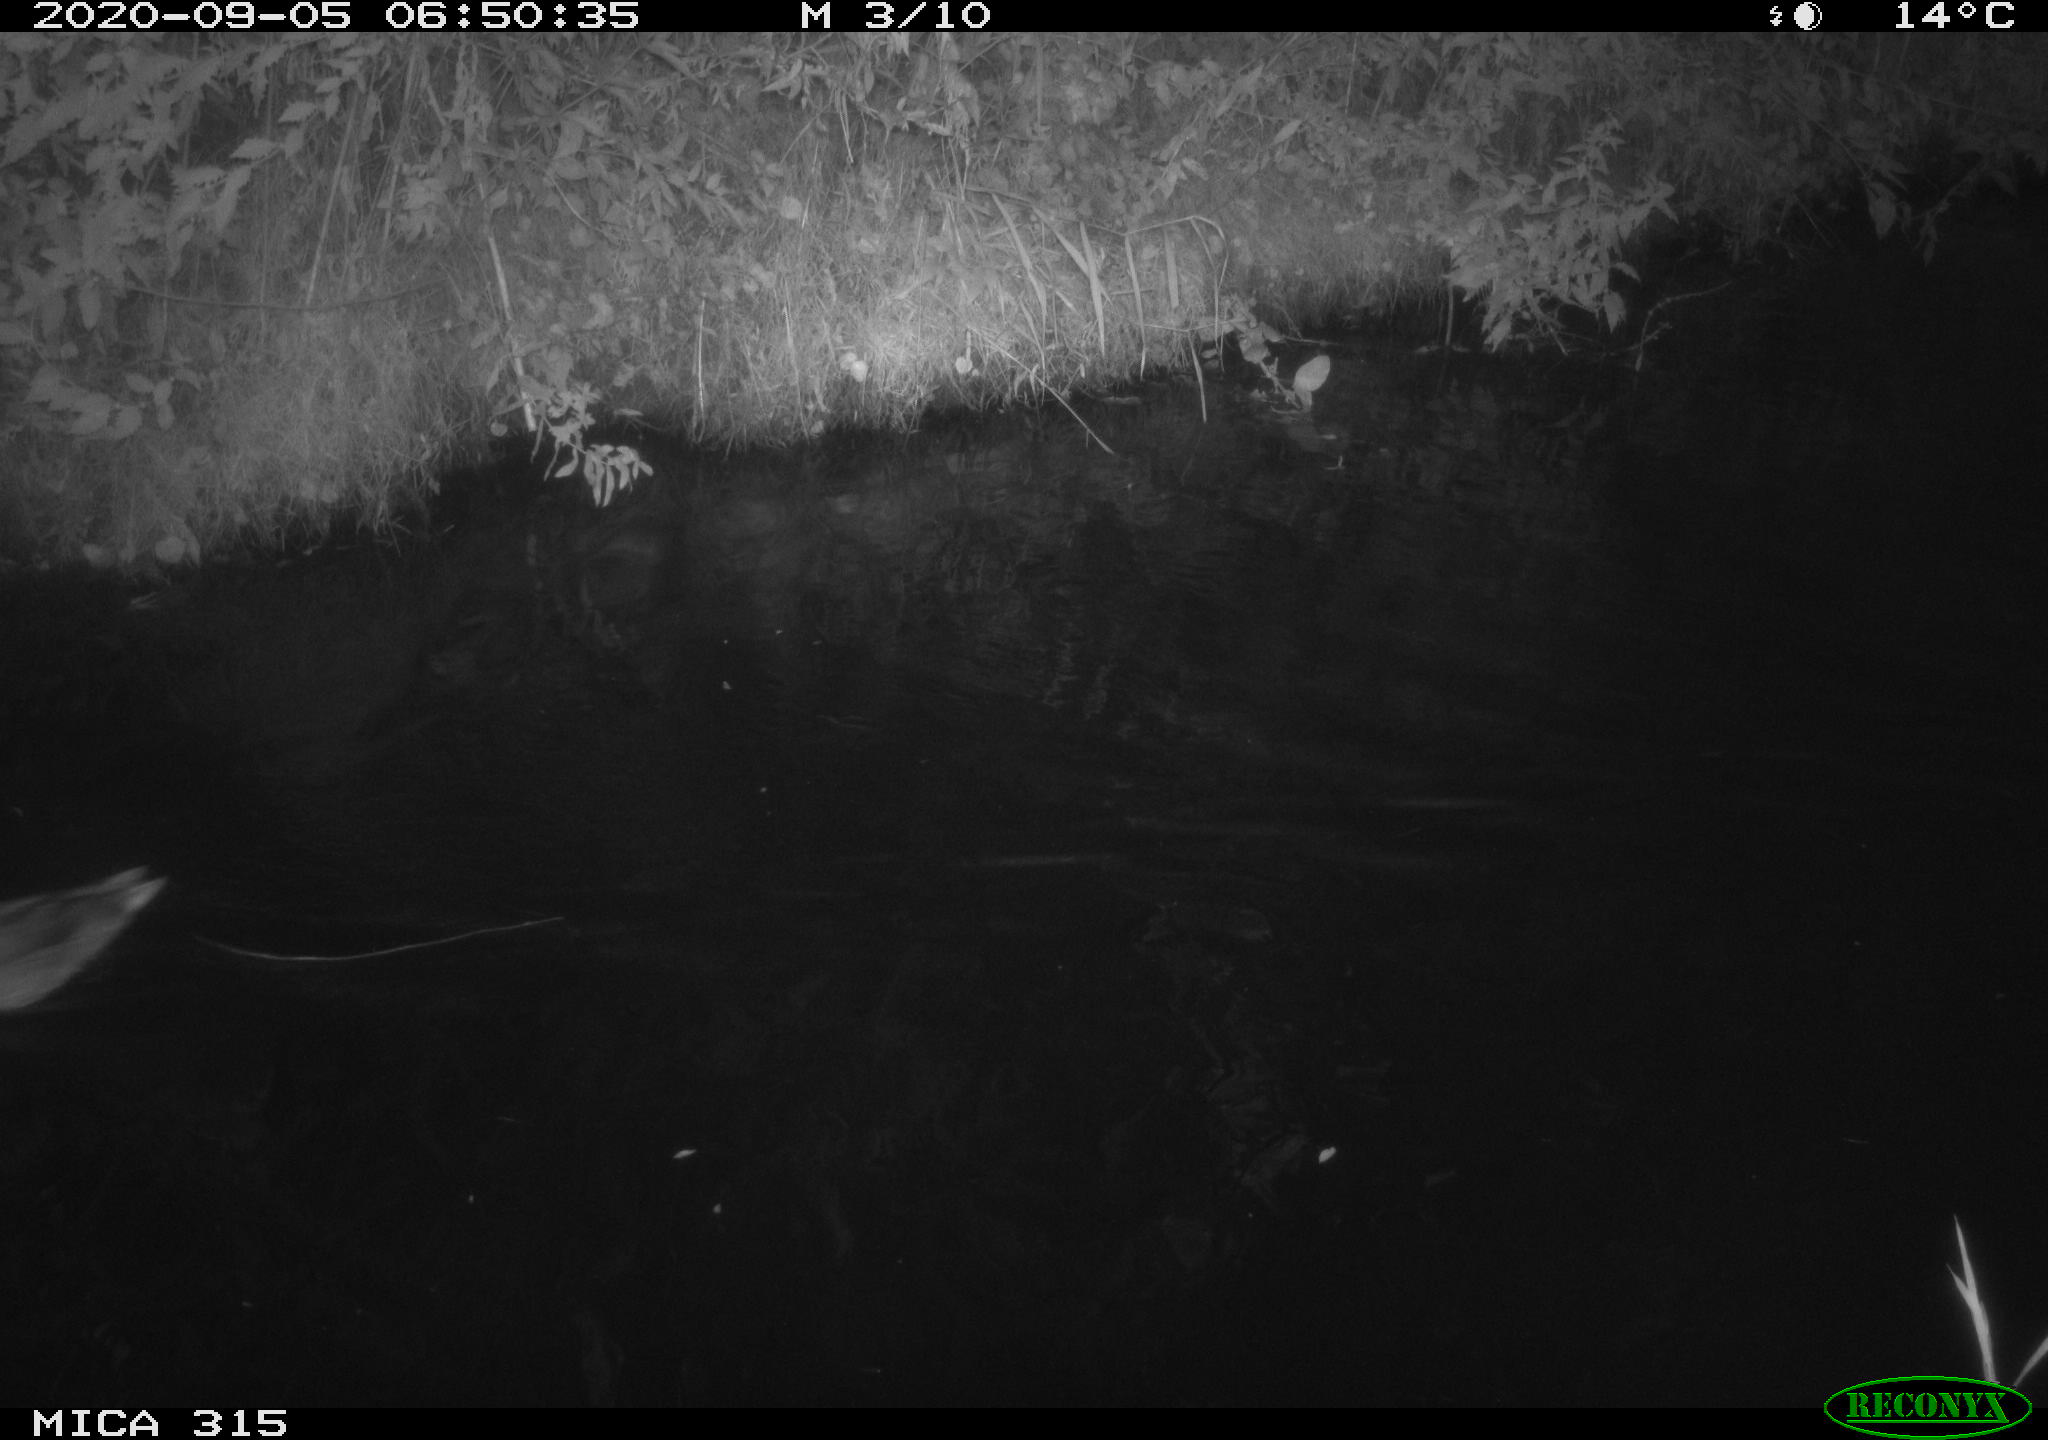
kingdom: Animalia
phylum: Chordata
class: Aves
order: Anseriformes
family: Anatidae
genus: Anas
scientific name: Anas platyrhynchos
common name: Mallard
